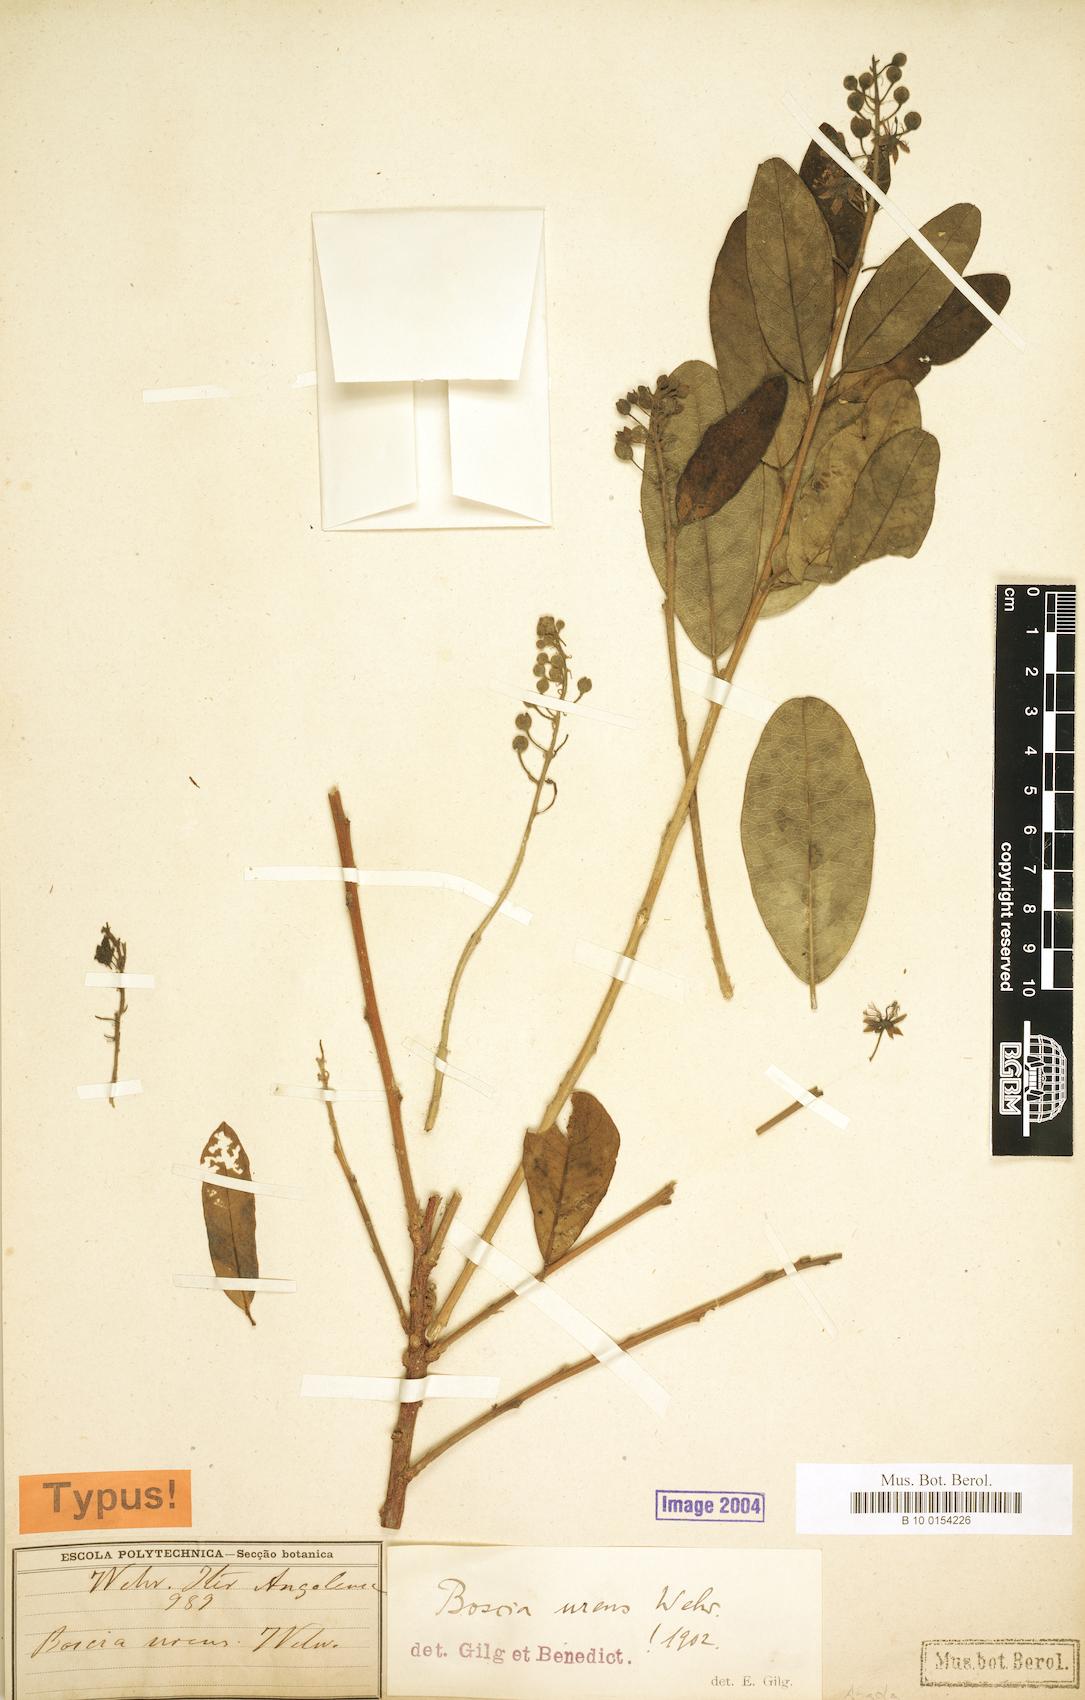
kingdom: Plantae
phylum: Tracheophyta
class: Magnoliopsida
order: Brassicales
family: Capparaceae
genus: Boscia
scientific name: Boscia urens
